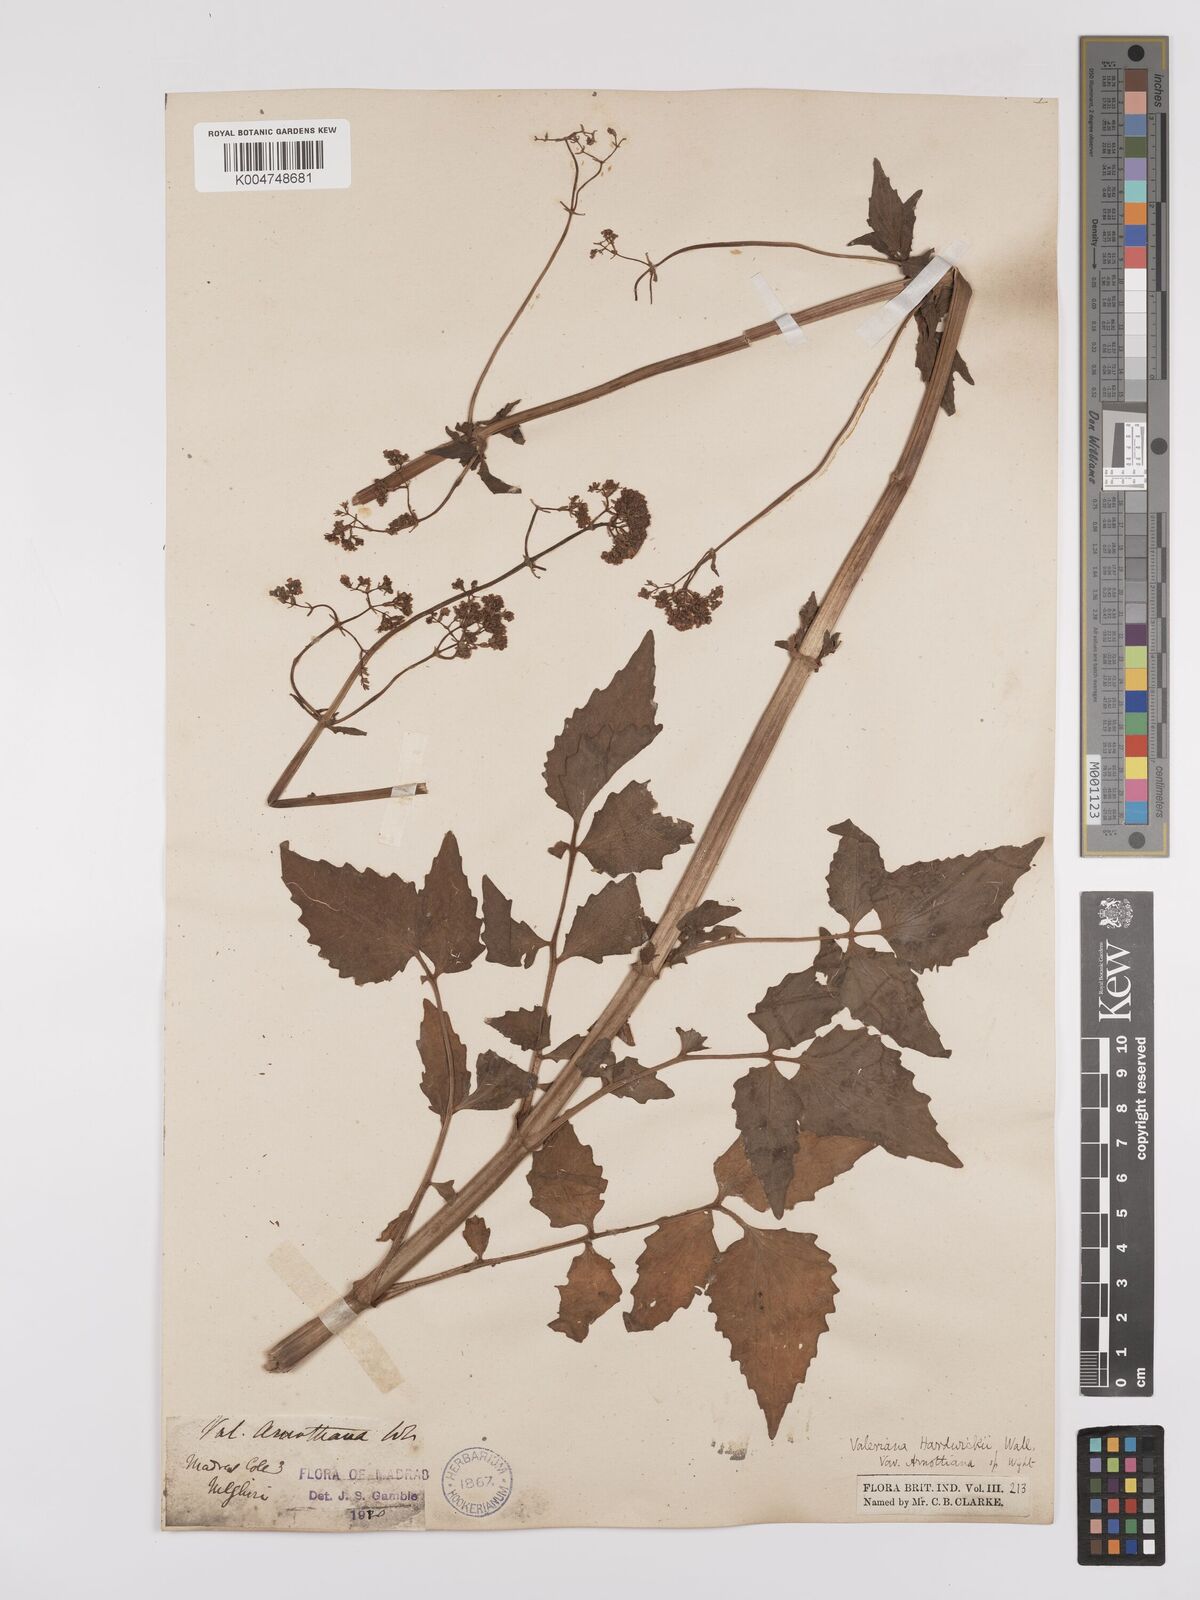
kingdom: Plantae
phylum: Tracheophyta
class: Magnoliopsida
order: Dipsacales
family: Caprifoliaceae
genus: Valeriana
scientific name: Valeriana hardwickei
